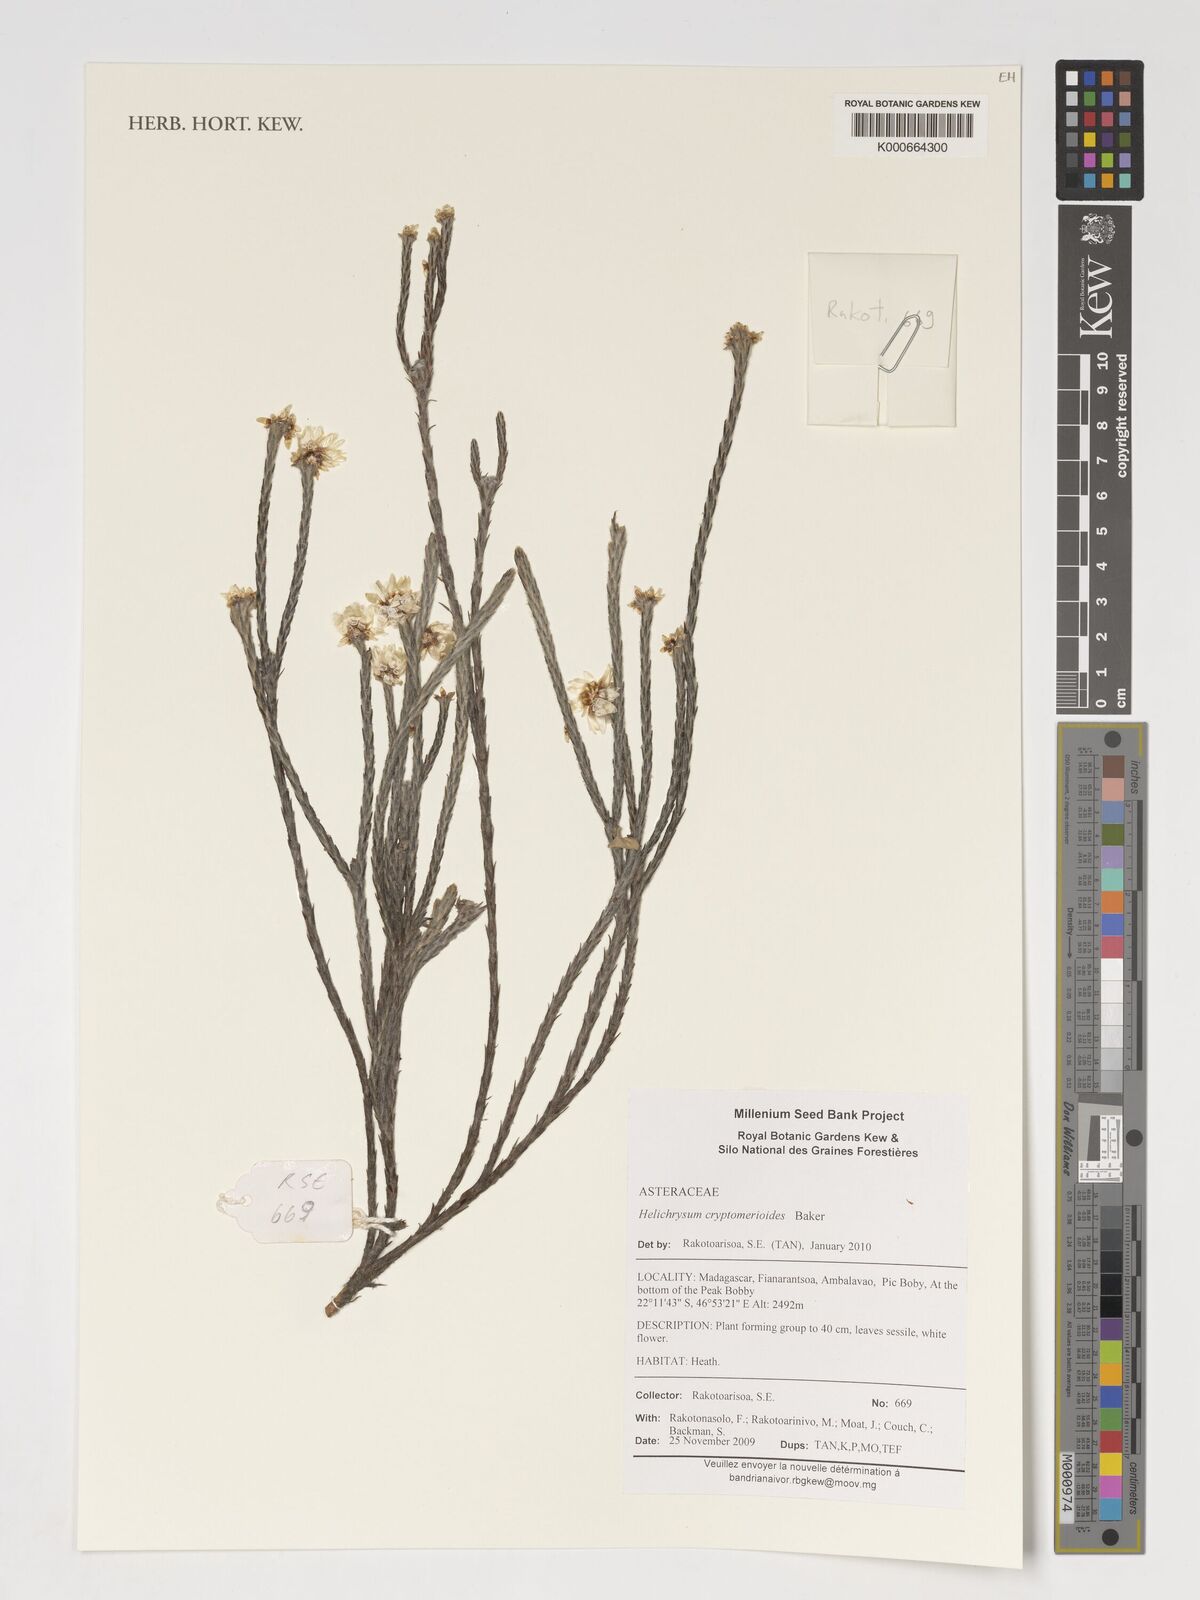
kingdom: Plantae
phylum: Tracheophyta
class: Magnoliopsida
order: Asterales
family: Asteraceae
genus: Helichrysum
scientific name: Helichrysum cryptomerioides
